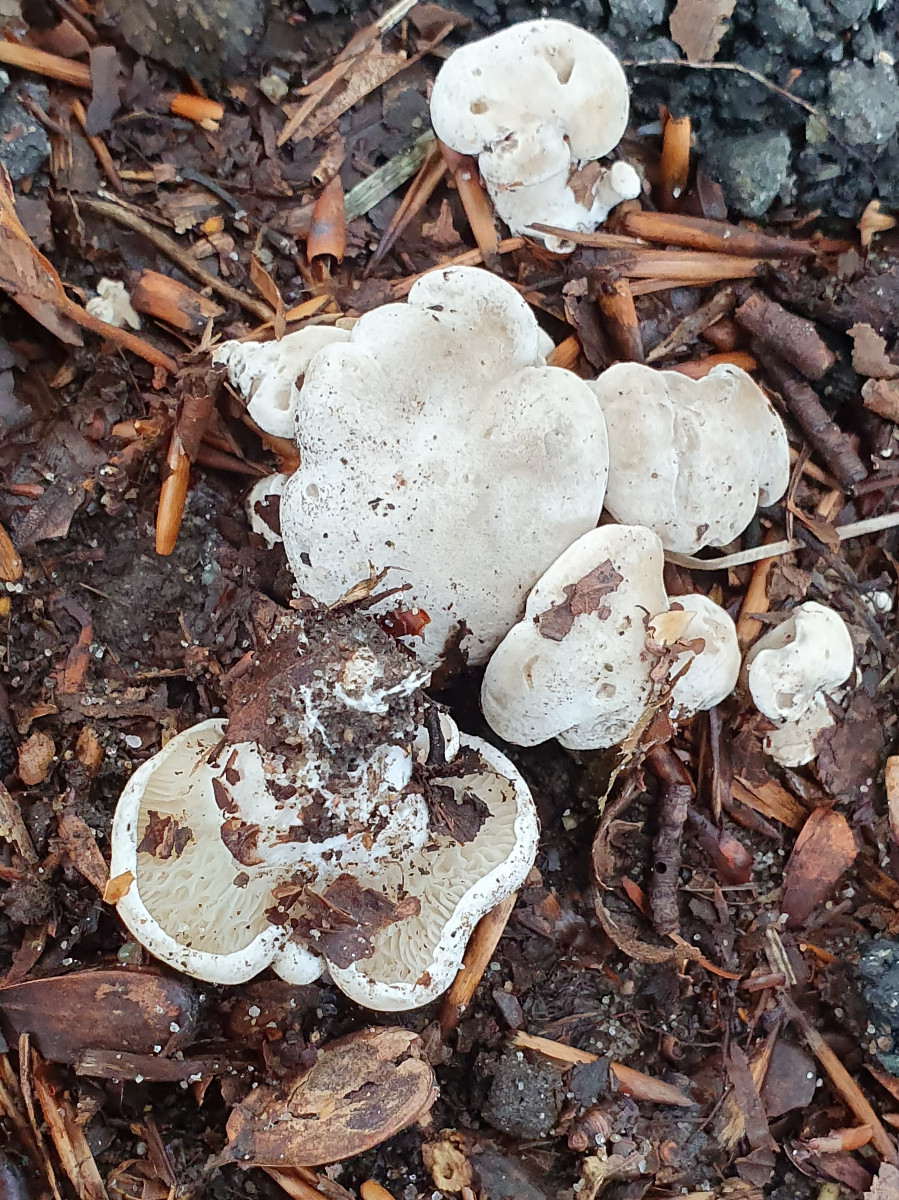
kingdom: Fungi
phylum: Basidiomycota
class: Agaricomycetes
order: Agaricales
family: Entolomataceae
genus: Clitopilus
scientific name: Clitopilus prunulus
